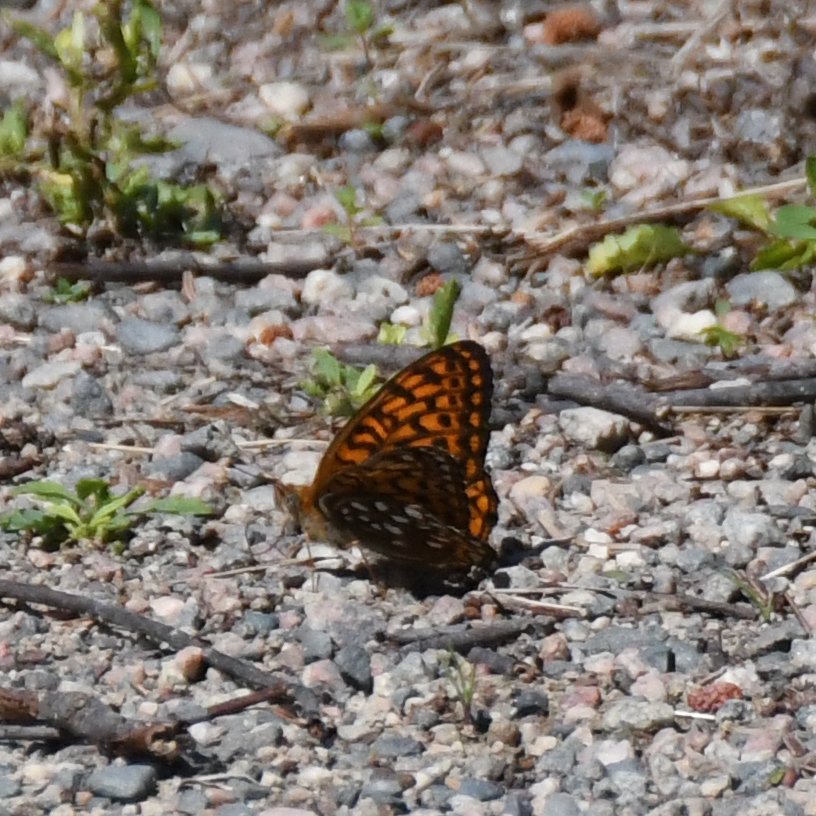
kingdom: Animalia
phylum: Arthropoda
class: Insecta
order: Lepidoptera
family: Nymphalidae
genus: Speyeria
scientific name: Speyeria atlantis
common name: Atlantis Fritillary
